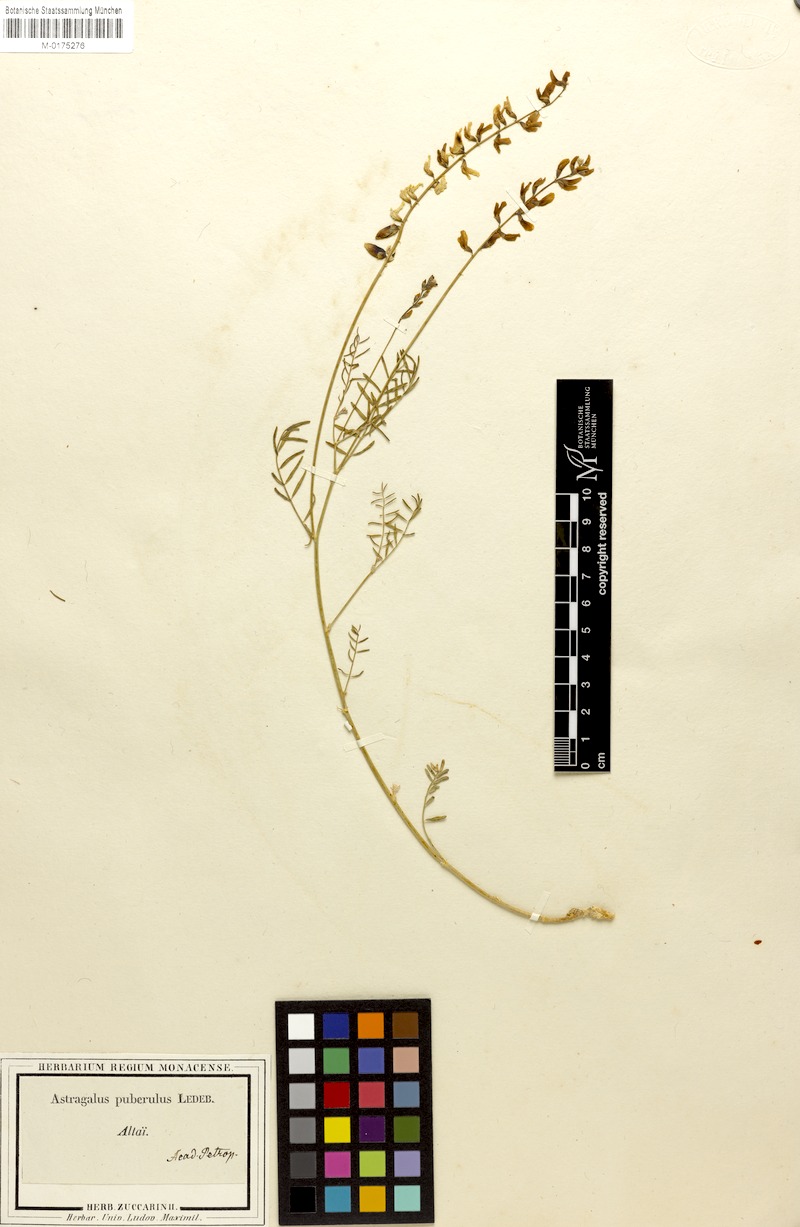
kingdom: Plantae
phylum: Tracheophyta
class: Magnoliopsida
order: Fabales
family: Fabaceae
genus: Astragalus
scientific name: Astragalus puberulus
